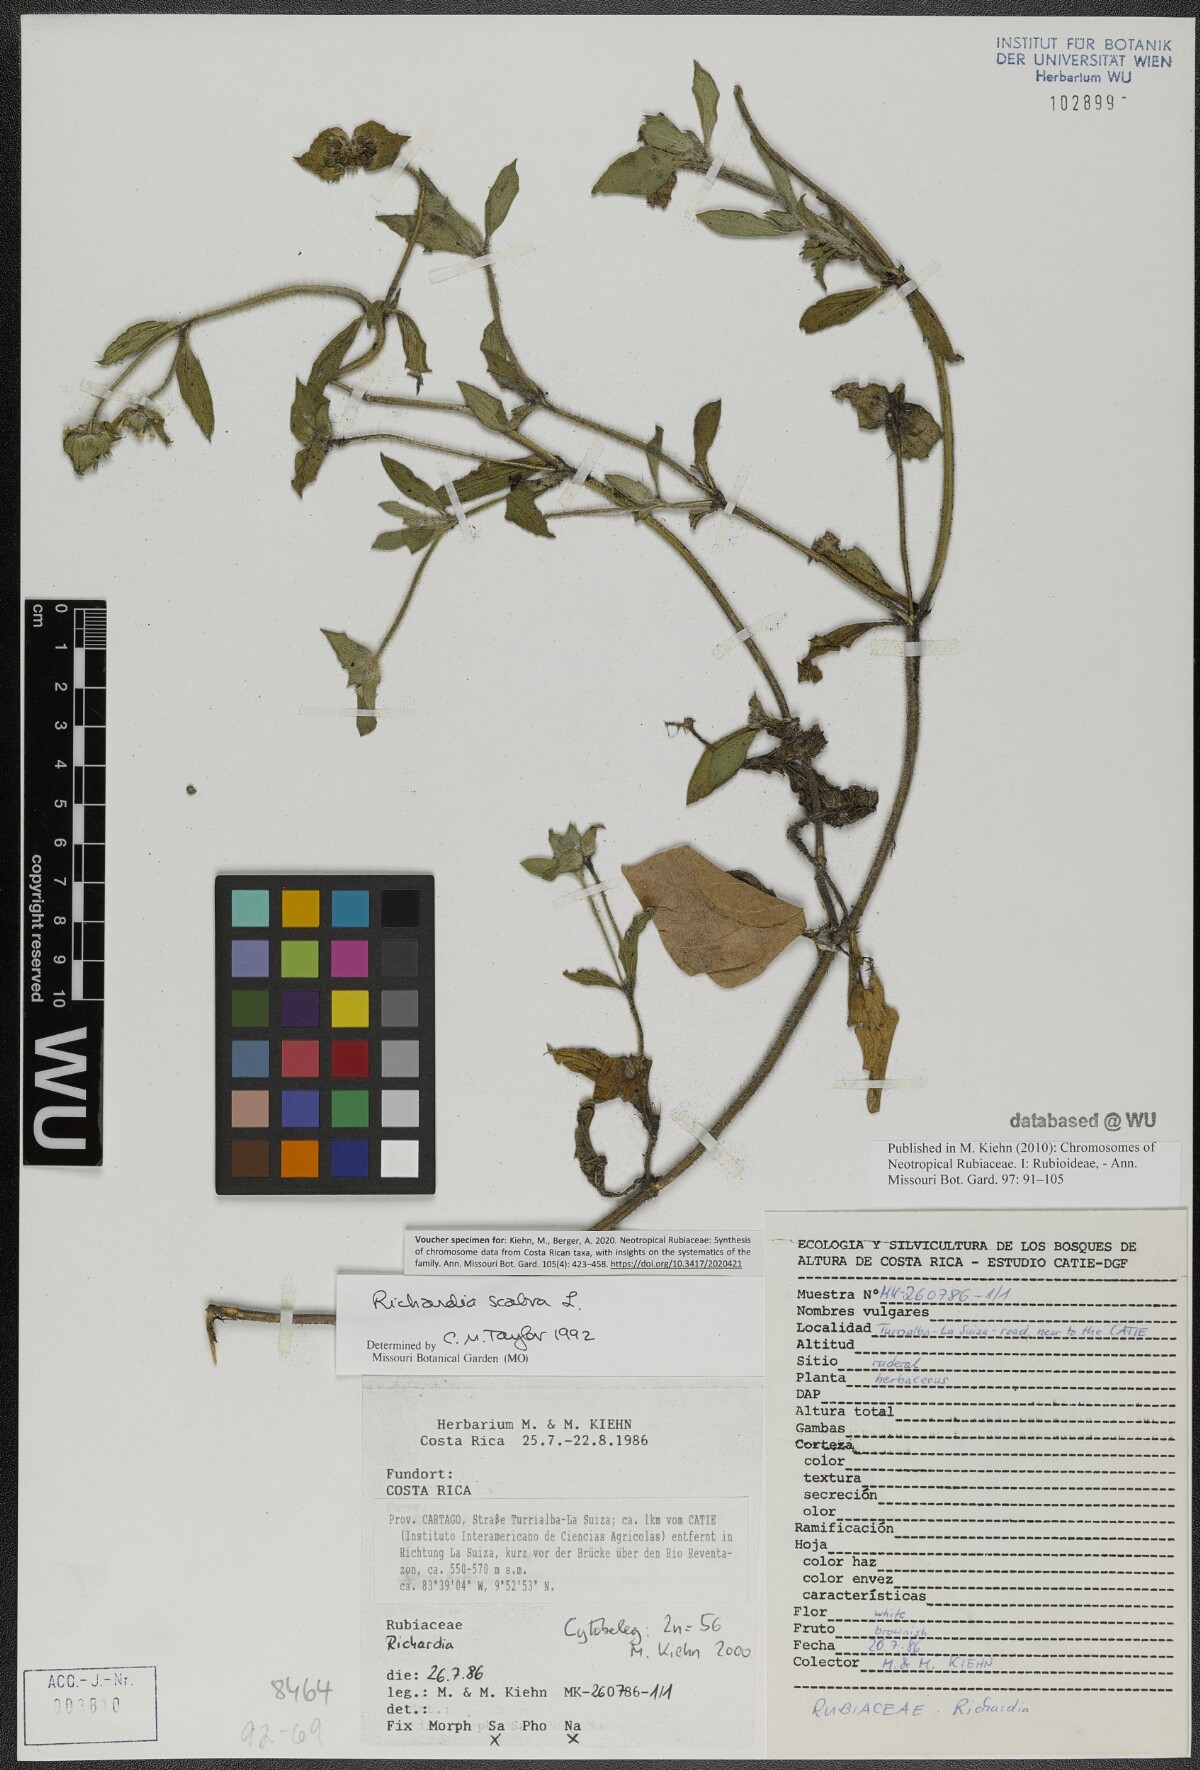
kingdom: Plantae
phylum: Tracheophyta
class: Magnoliopsida
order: Gentianales
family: Rubiaceae
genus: Richardia
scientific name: Richardia scabra
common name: Rough mexican clover
